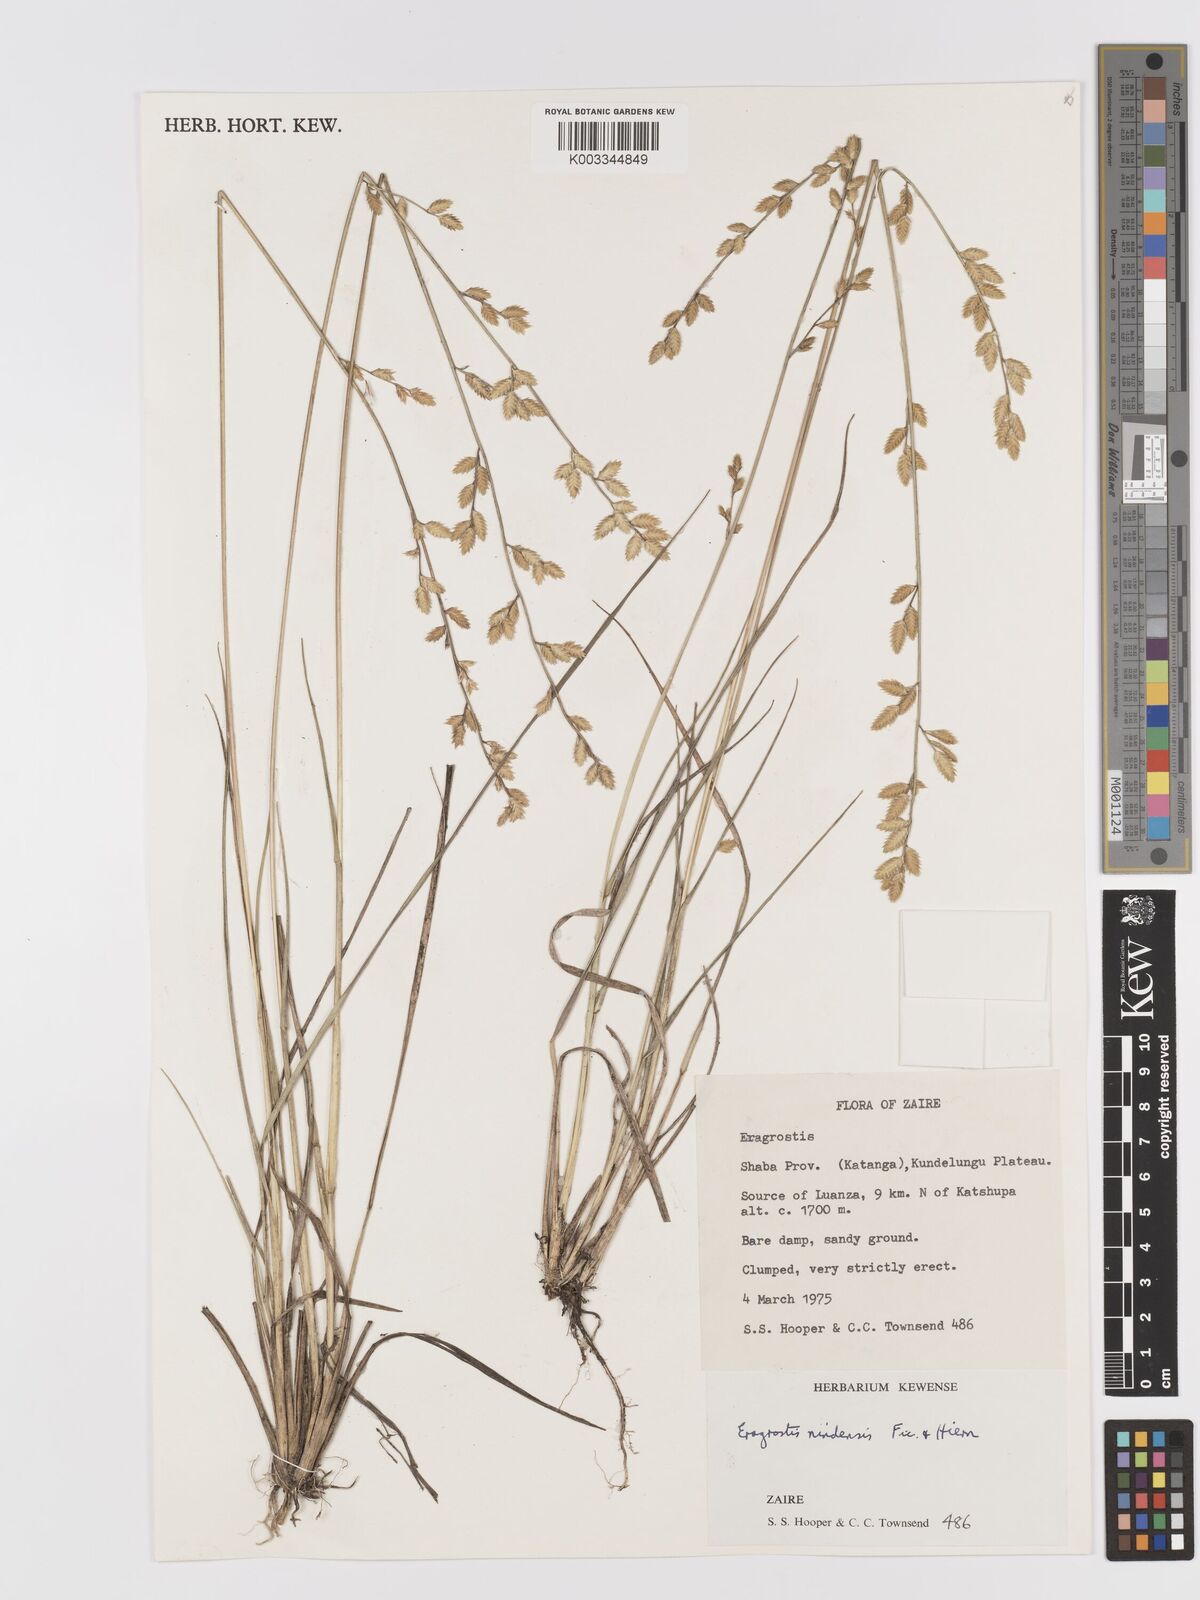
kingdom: Plantae
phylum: Tracheophyta
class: Liliopsida
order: Poales
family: Poaceae
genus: Eragrostis
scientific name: Eragrostis nindensis
